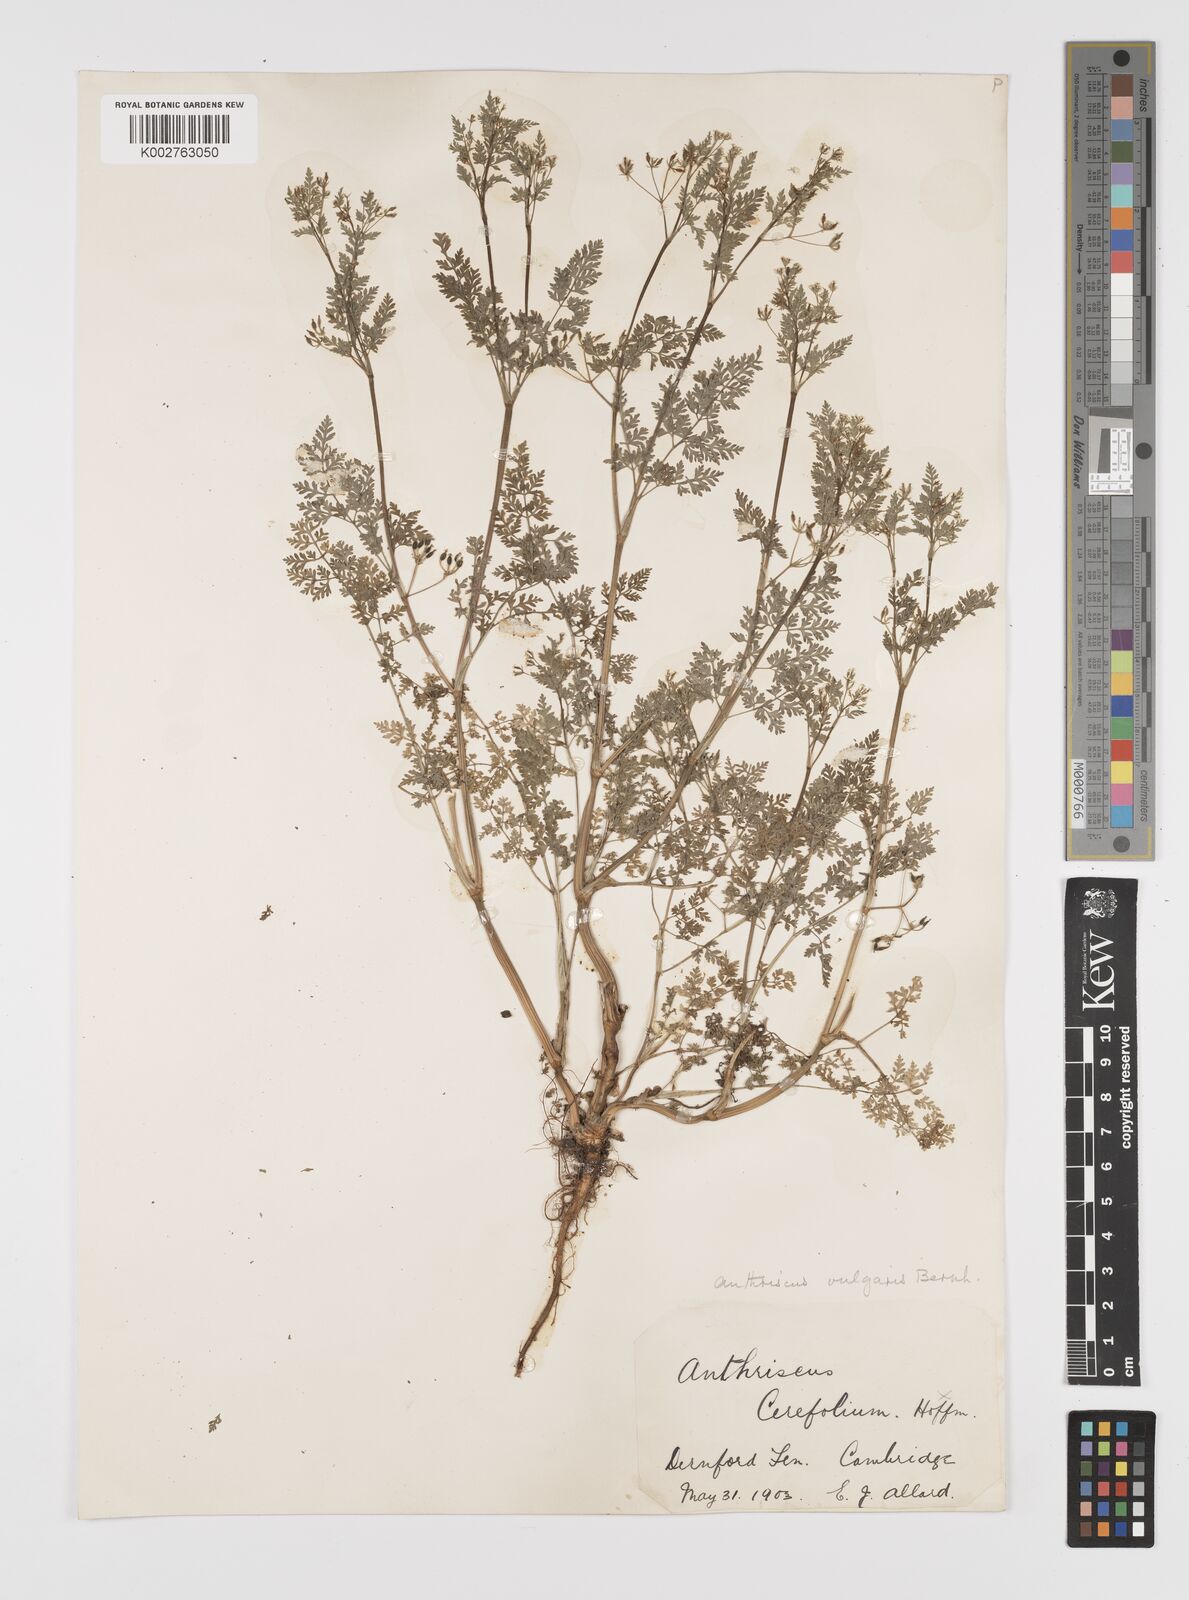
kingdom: Plantae
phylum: Tracheophyta
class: Magnoliopsida
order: Apiales
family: Apiaceae
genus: Anthriscus
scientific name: Anthriscus caucalis
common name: Bur chervil
